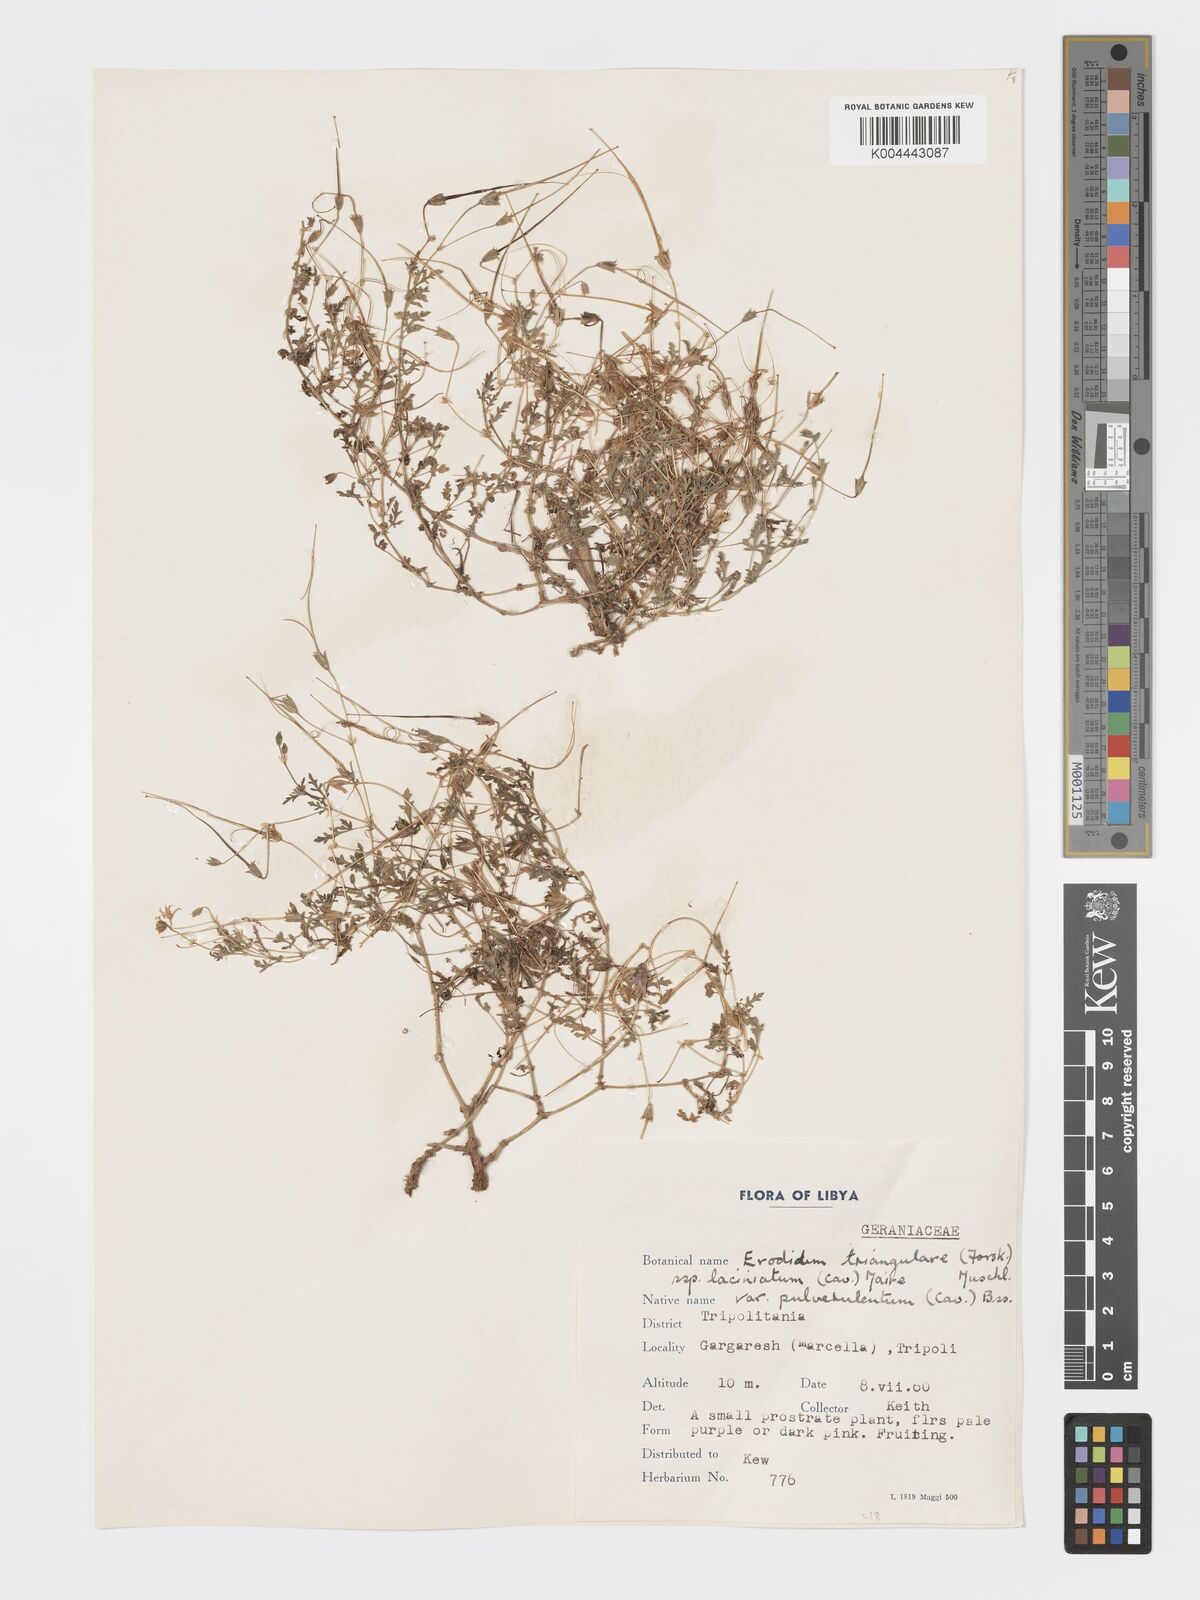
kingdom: Plantae
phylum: Tracheophyta
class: Magnoliopsida
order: Geraniales
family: Geraniaceae
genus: Erodium
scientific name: Erodium laciniatum
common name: Cutleaf stork's bill
